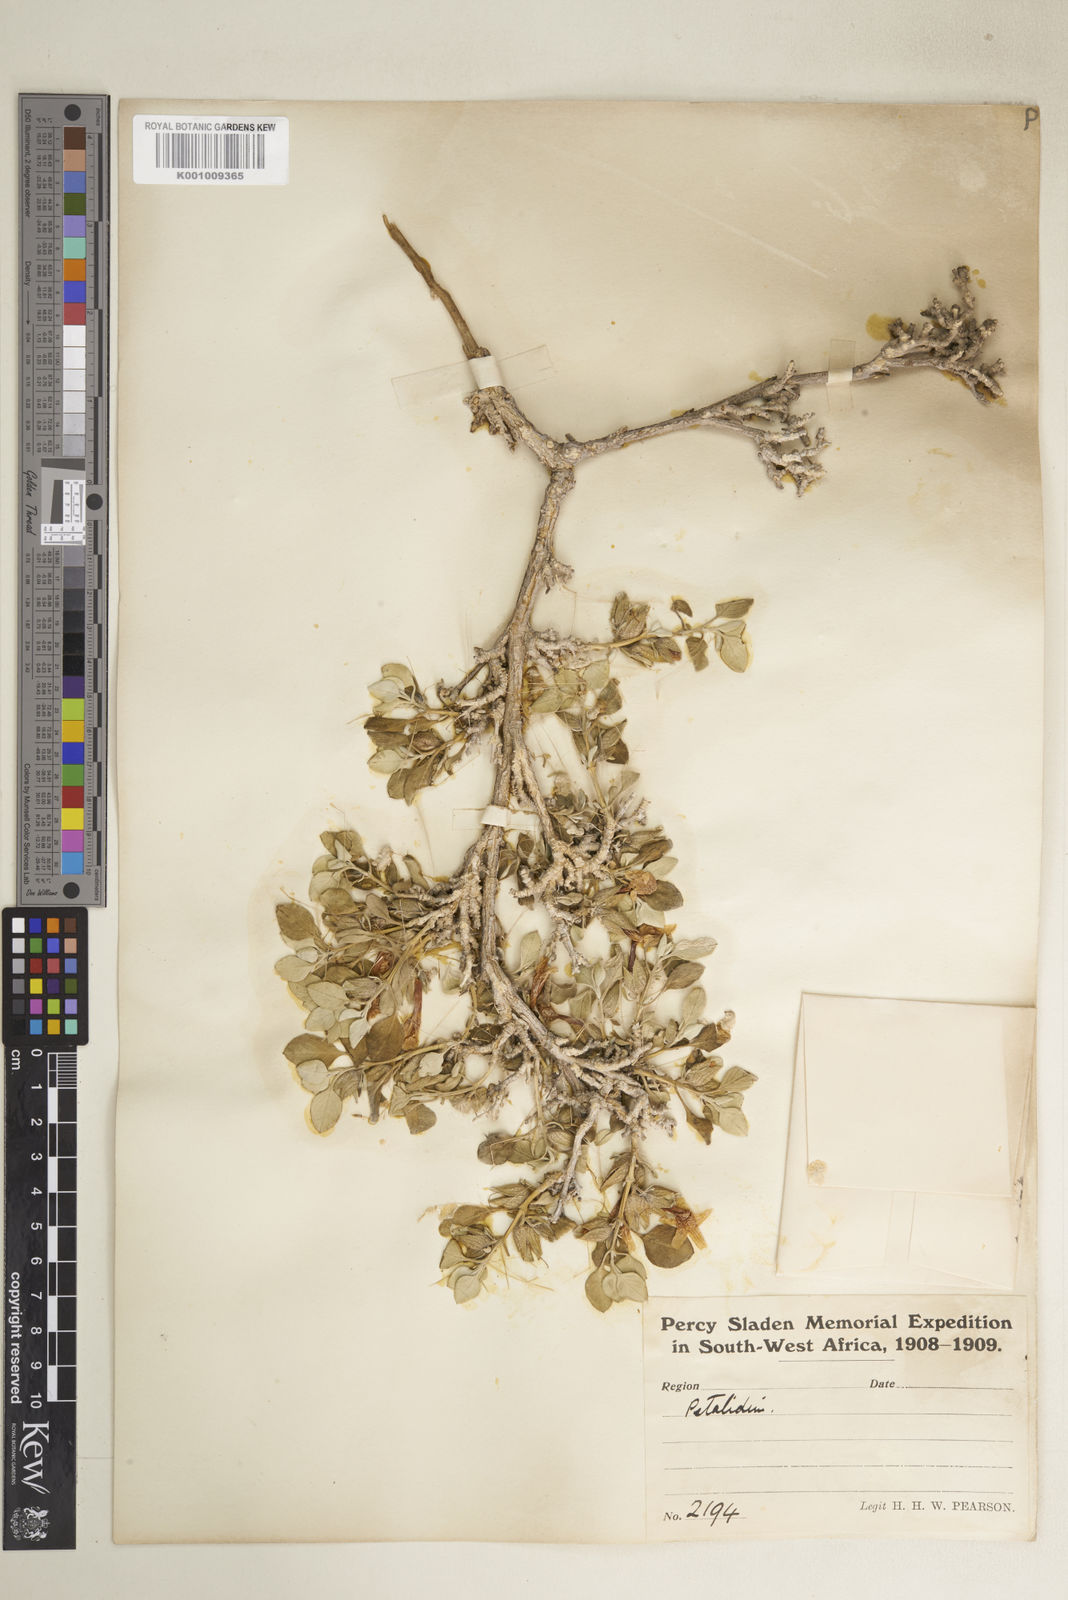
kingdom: Plantae
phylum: Tracheophyta
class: Magnoliopsida
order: Lamiales
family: Acanthaceae
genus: Petalidium
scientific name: Petalidium welwitschii
